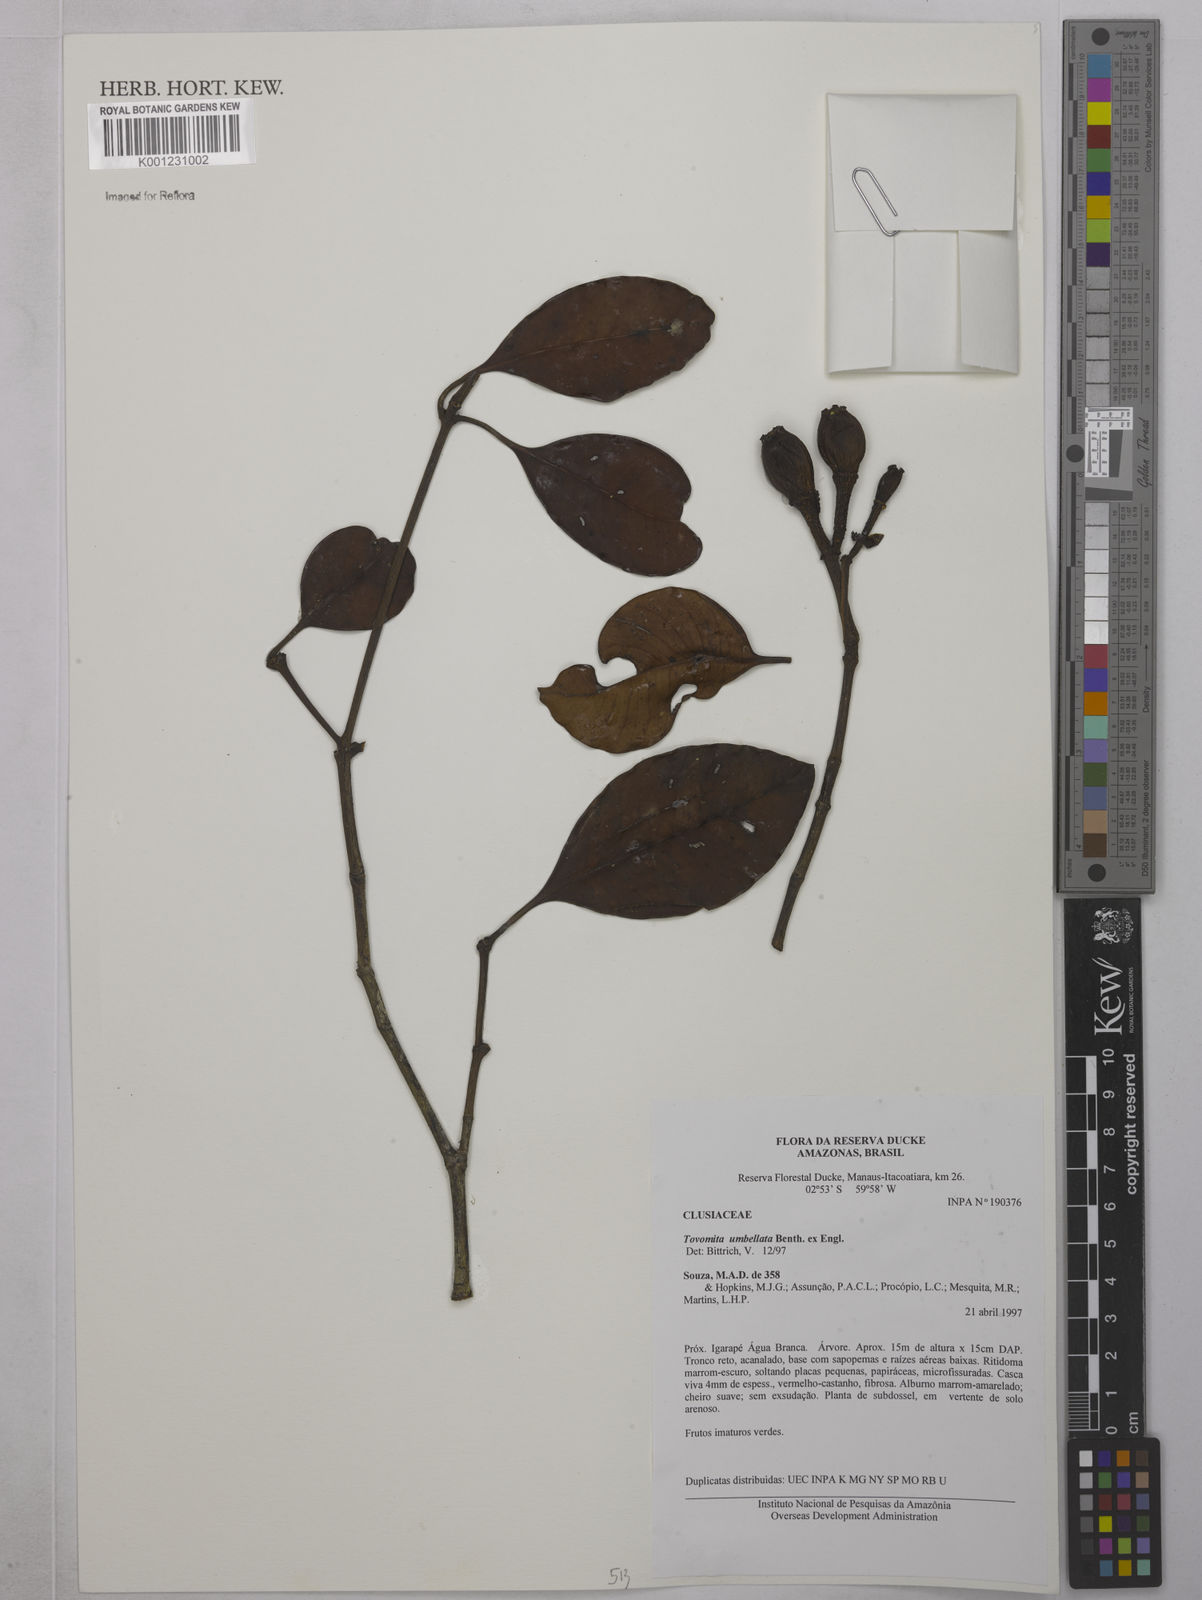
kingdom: Plantae
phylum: Tracheophyta
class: Magnoliopsida
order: Malpighiales
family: Clusiaceae
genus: Tovomita
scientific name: Tovomita umbellata
